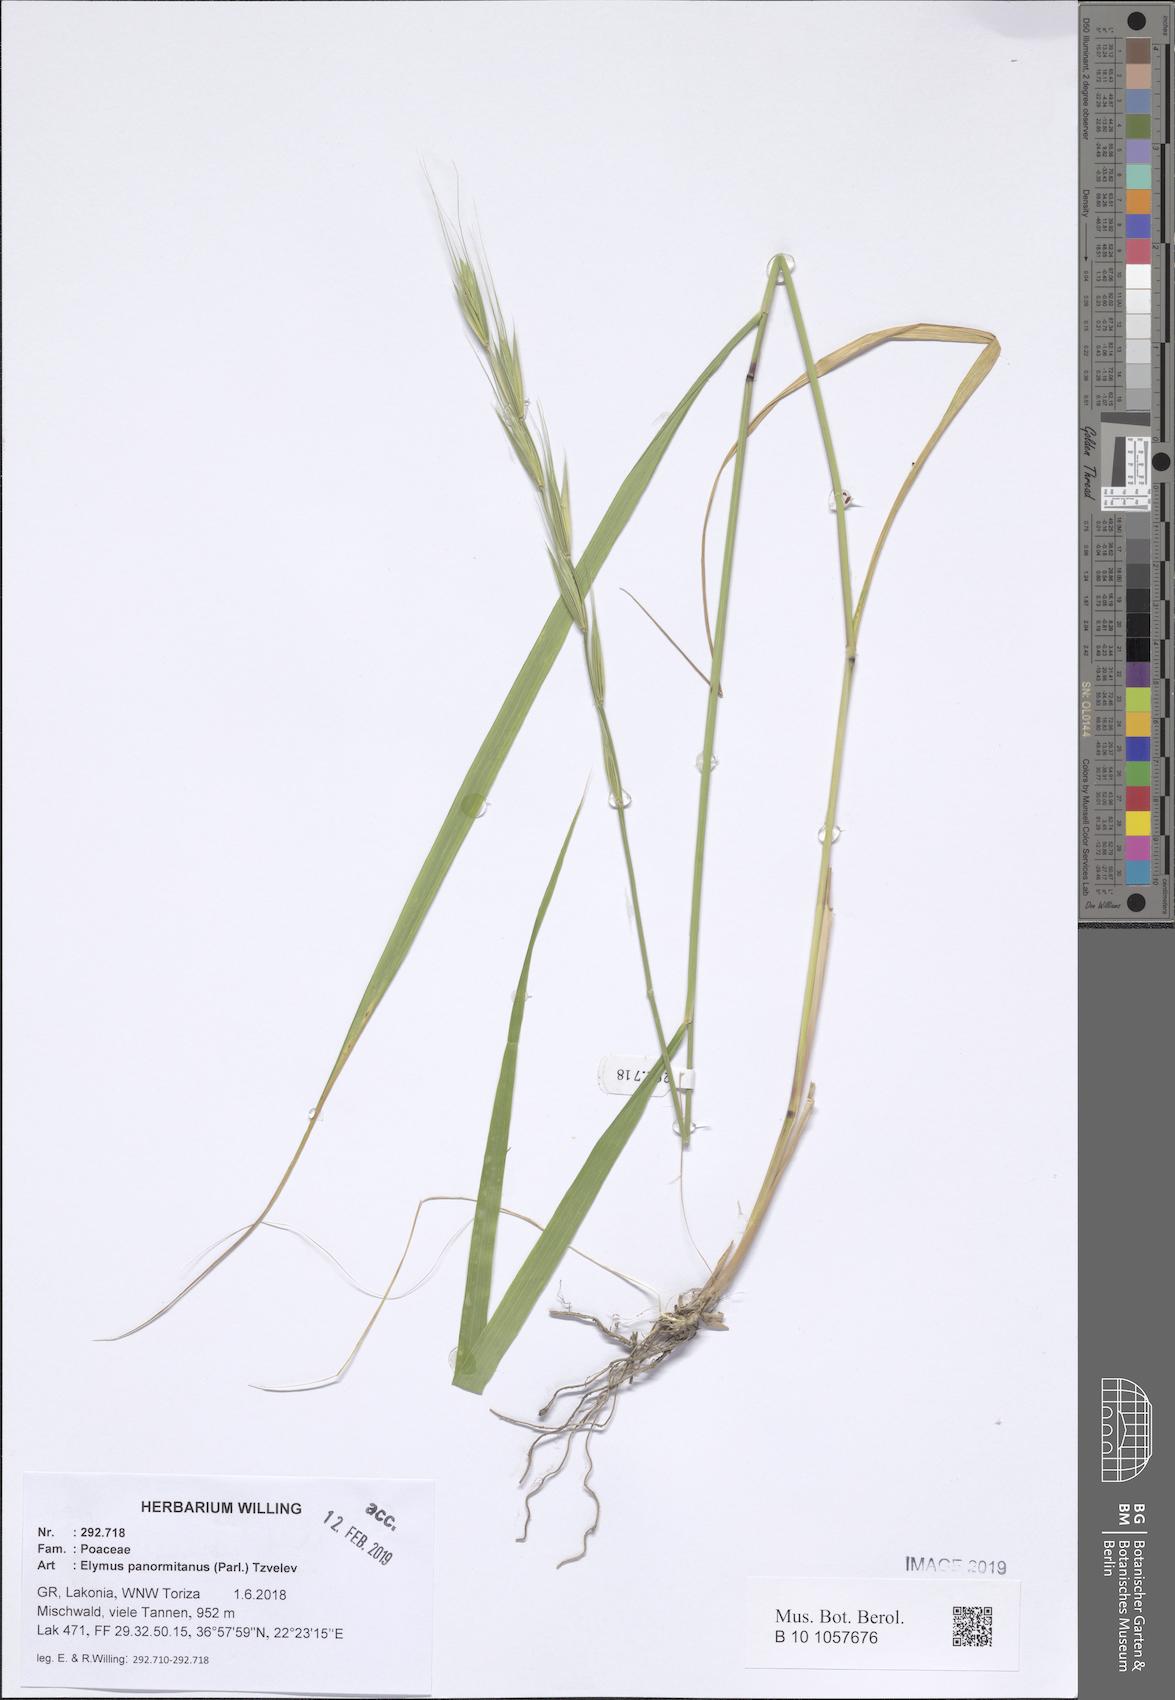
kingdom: Plantae
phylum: Tracheophyta
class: Liliopsida
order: Poales
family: Poaceae
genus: Elymus
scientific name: Elymus panormitanus
